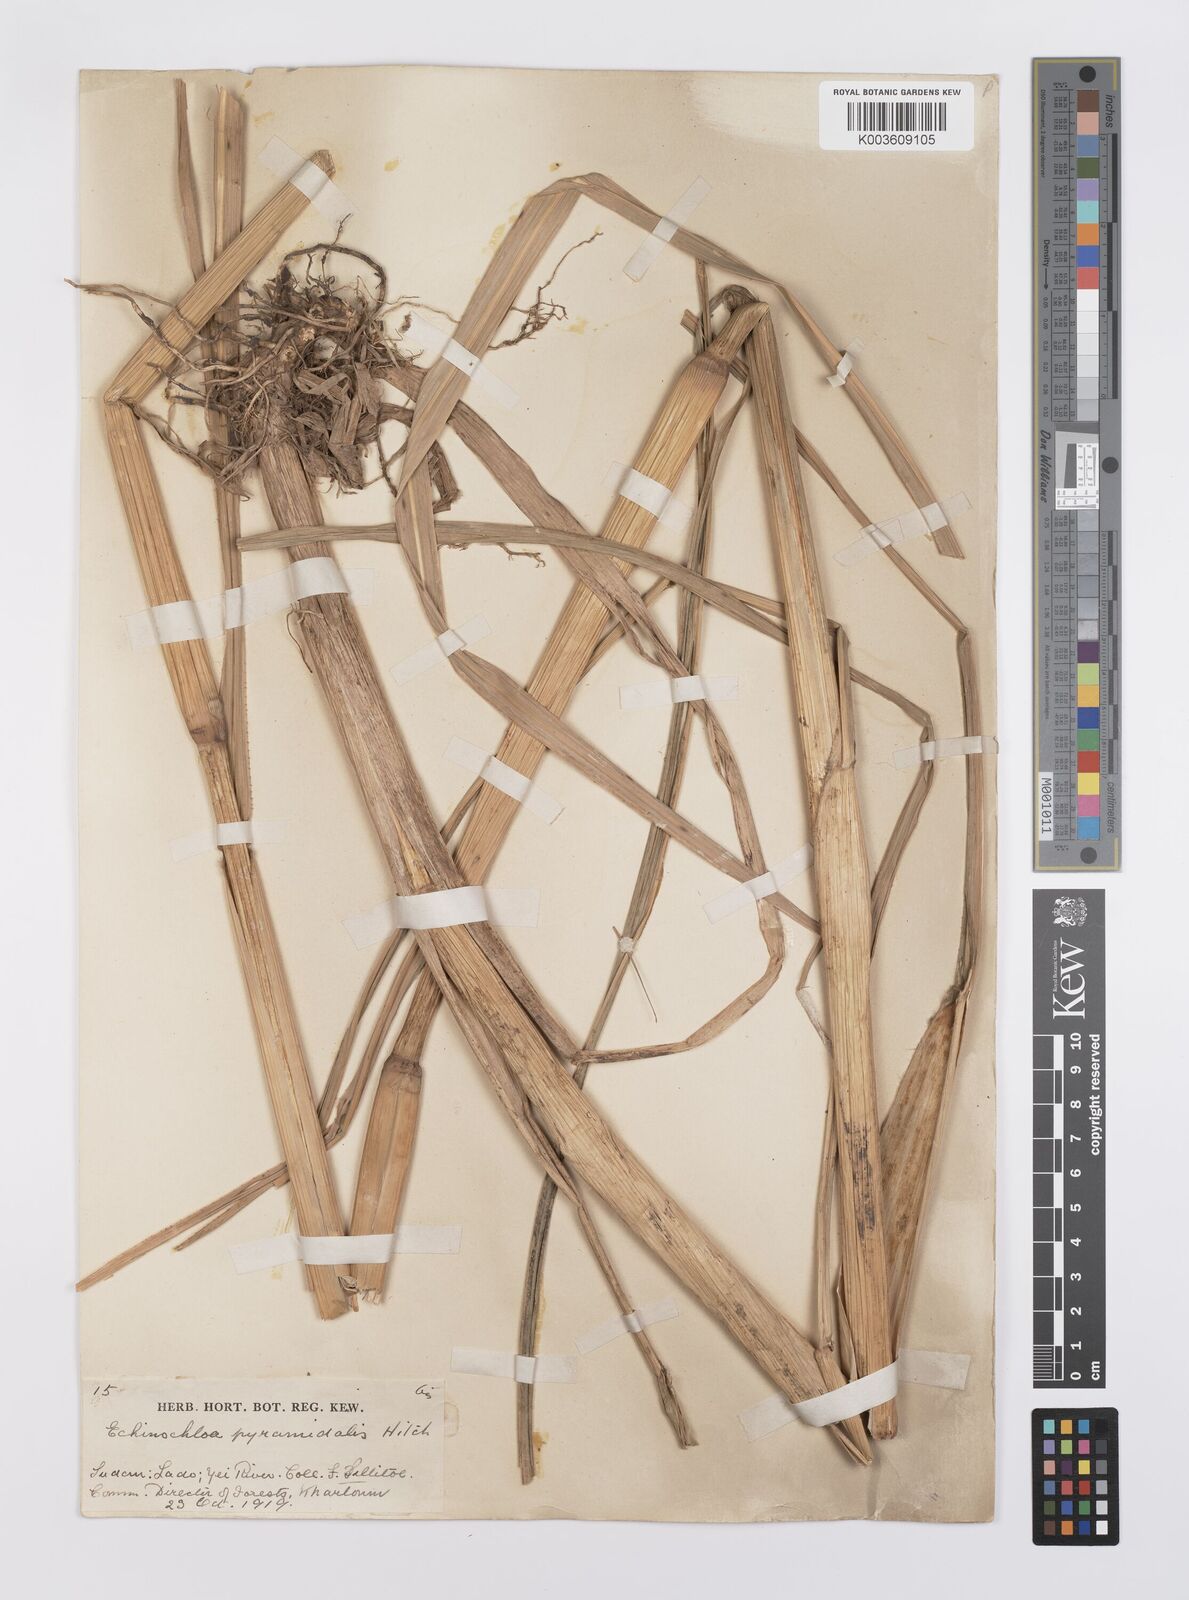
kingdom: Plantae
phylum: Tracheophyta
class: Liliopsida
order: Poales
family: Poaceae
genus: Echinochloa
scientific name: Echinochloa pyramidalis
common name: Antelope grass
